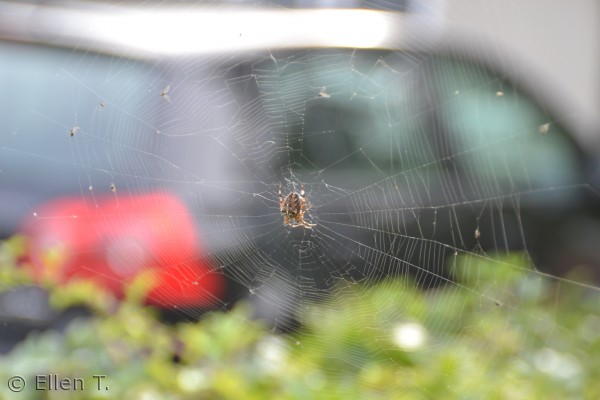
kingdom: Animalia
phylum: Arthropoda
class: Arachnida
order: Araneae
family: Araneidae
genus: Araneus
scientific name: Araneus diadematus
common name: Korsedderkop
